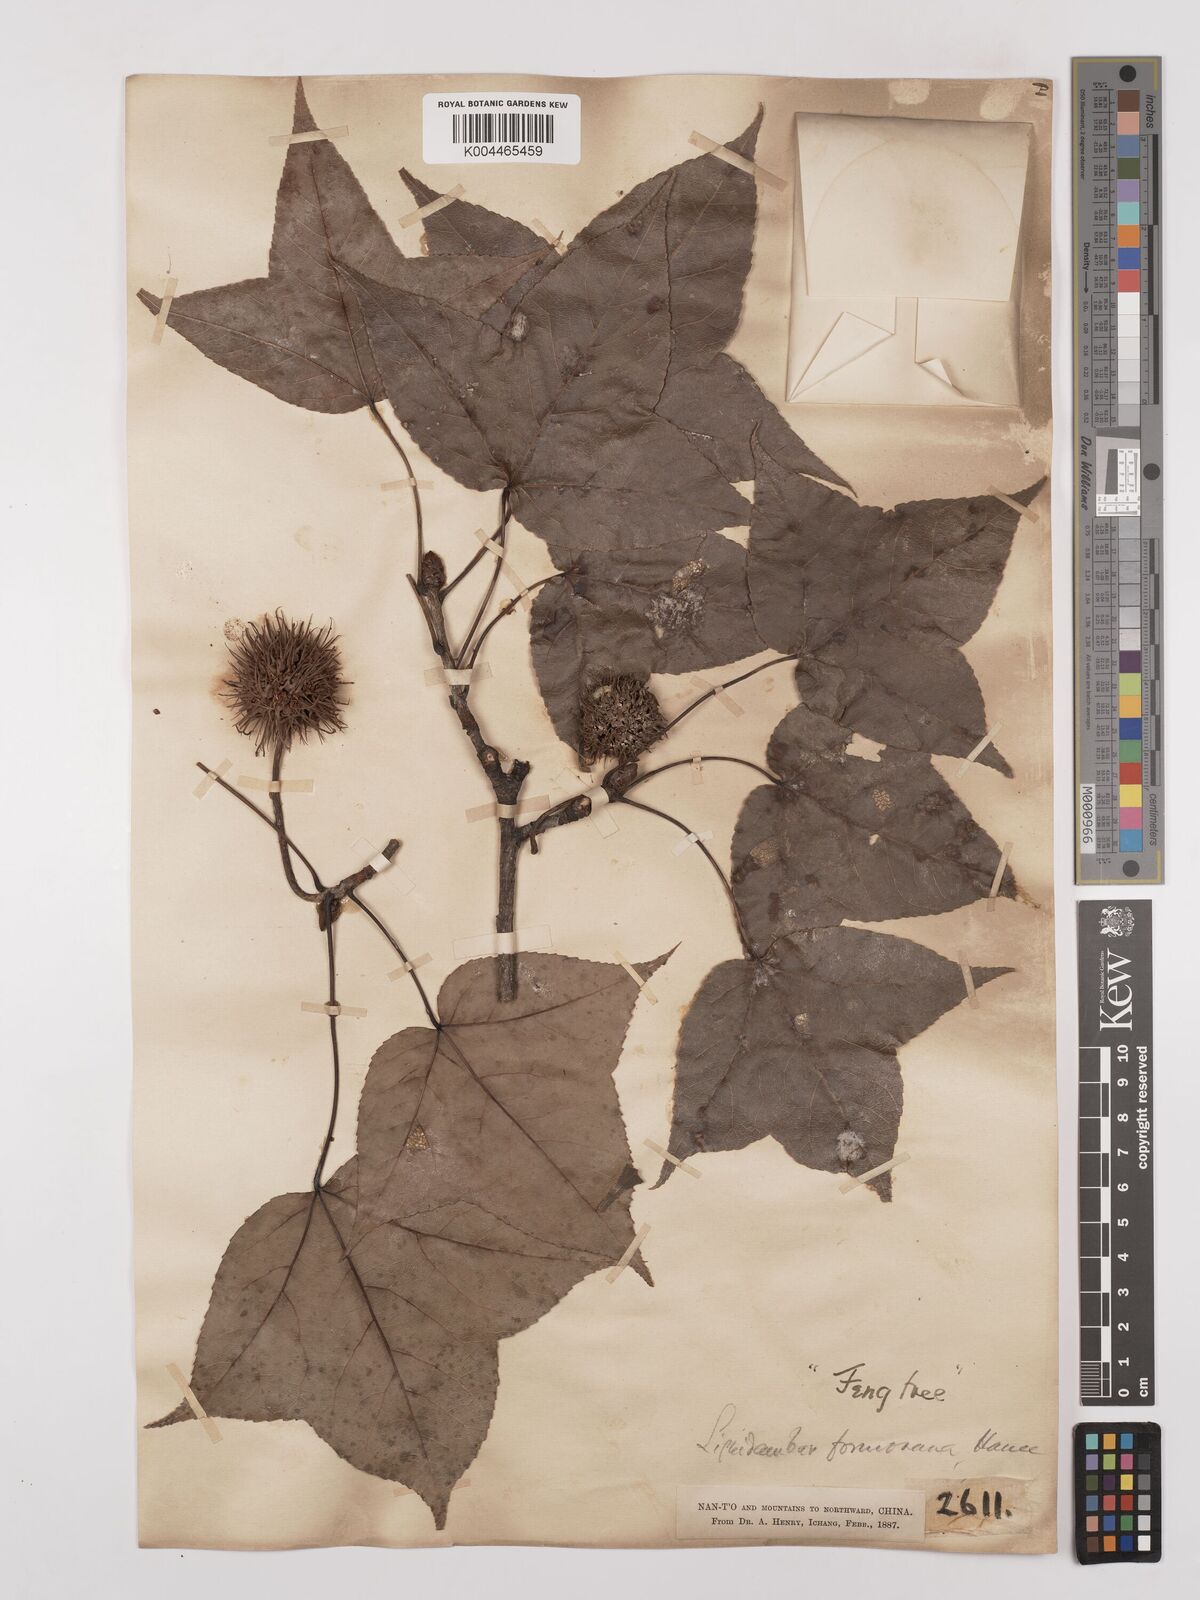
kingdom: Plantae
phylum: Tracheophyta
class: Magnoliopsida
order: Saxifragales
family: Altingiaceae
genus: Liquidambar
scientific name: Liquidambar formosana
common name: Chinese sweet gum
